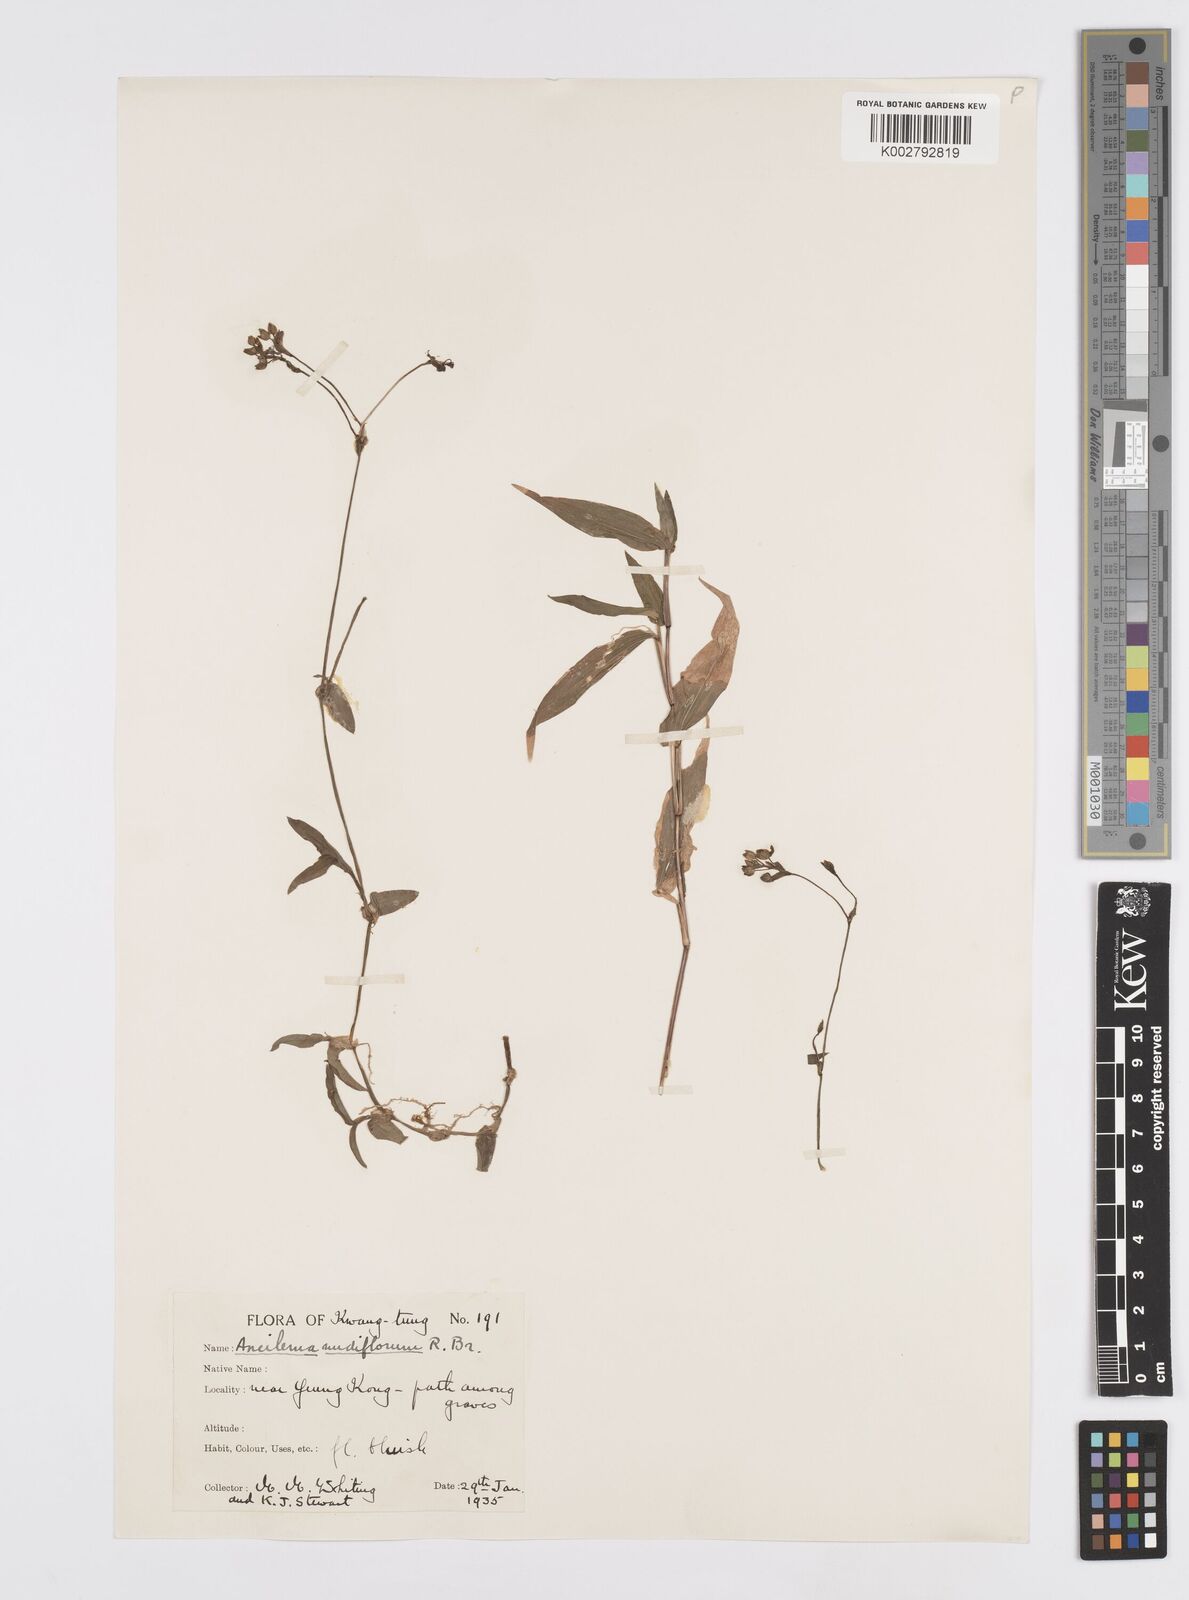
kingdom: Plantae
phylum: Tracheophyta
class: Liliopsida
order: Commelinales
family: Commelinaceae
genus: Murdannia
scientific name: Murdannia nudiflora
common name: Nakedstem dewflower
